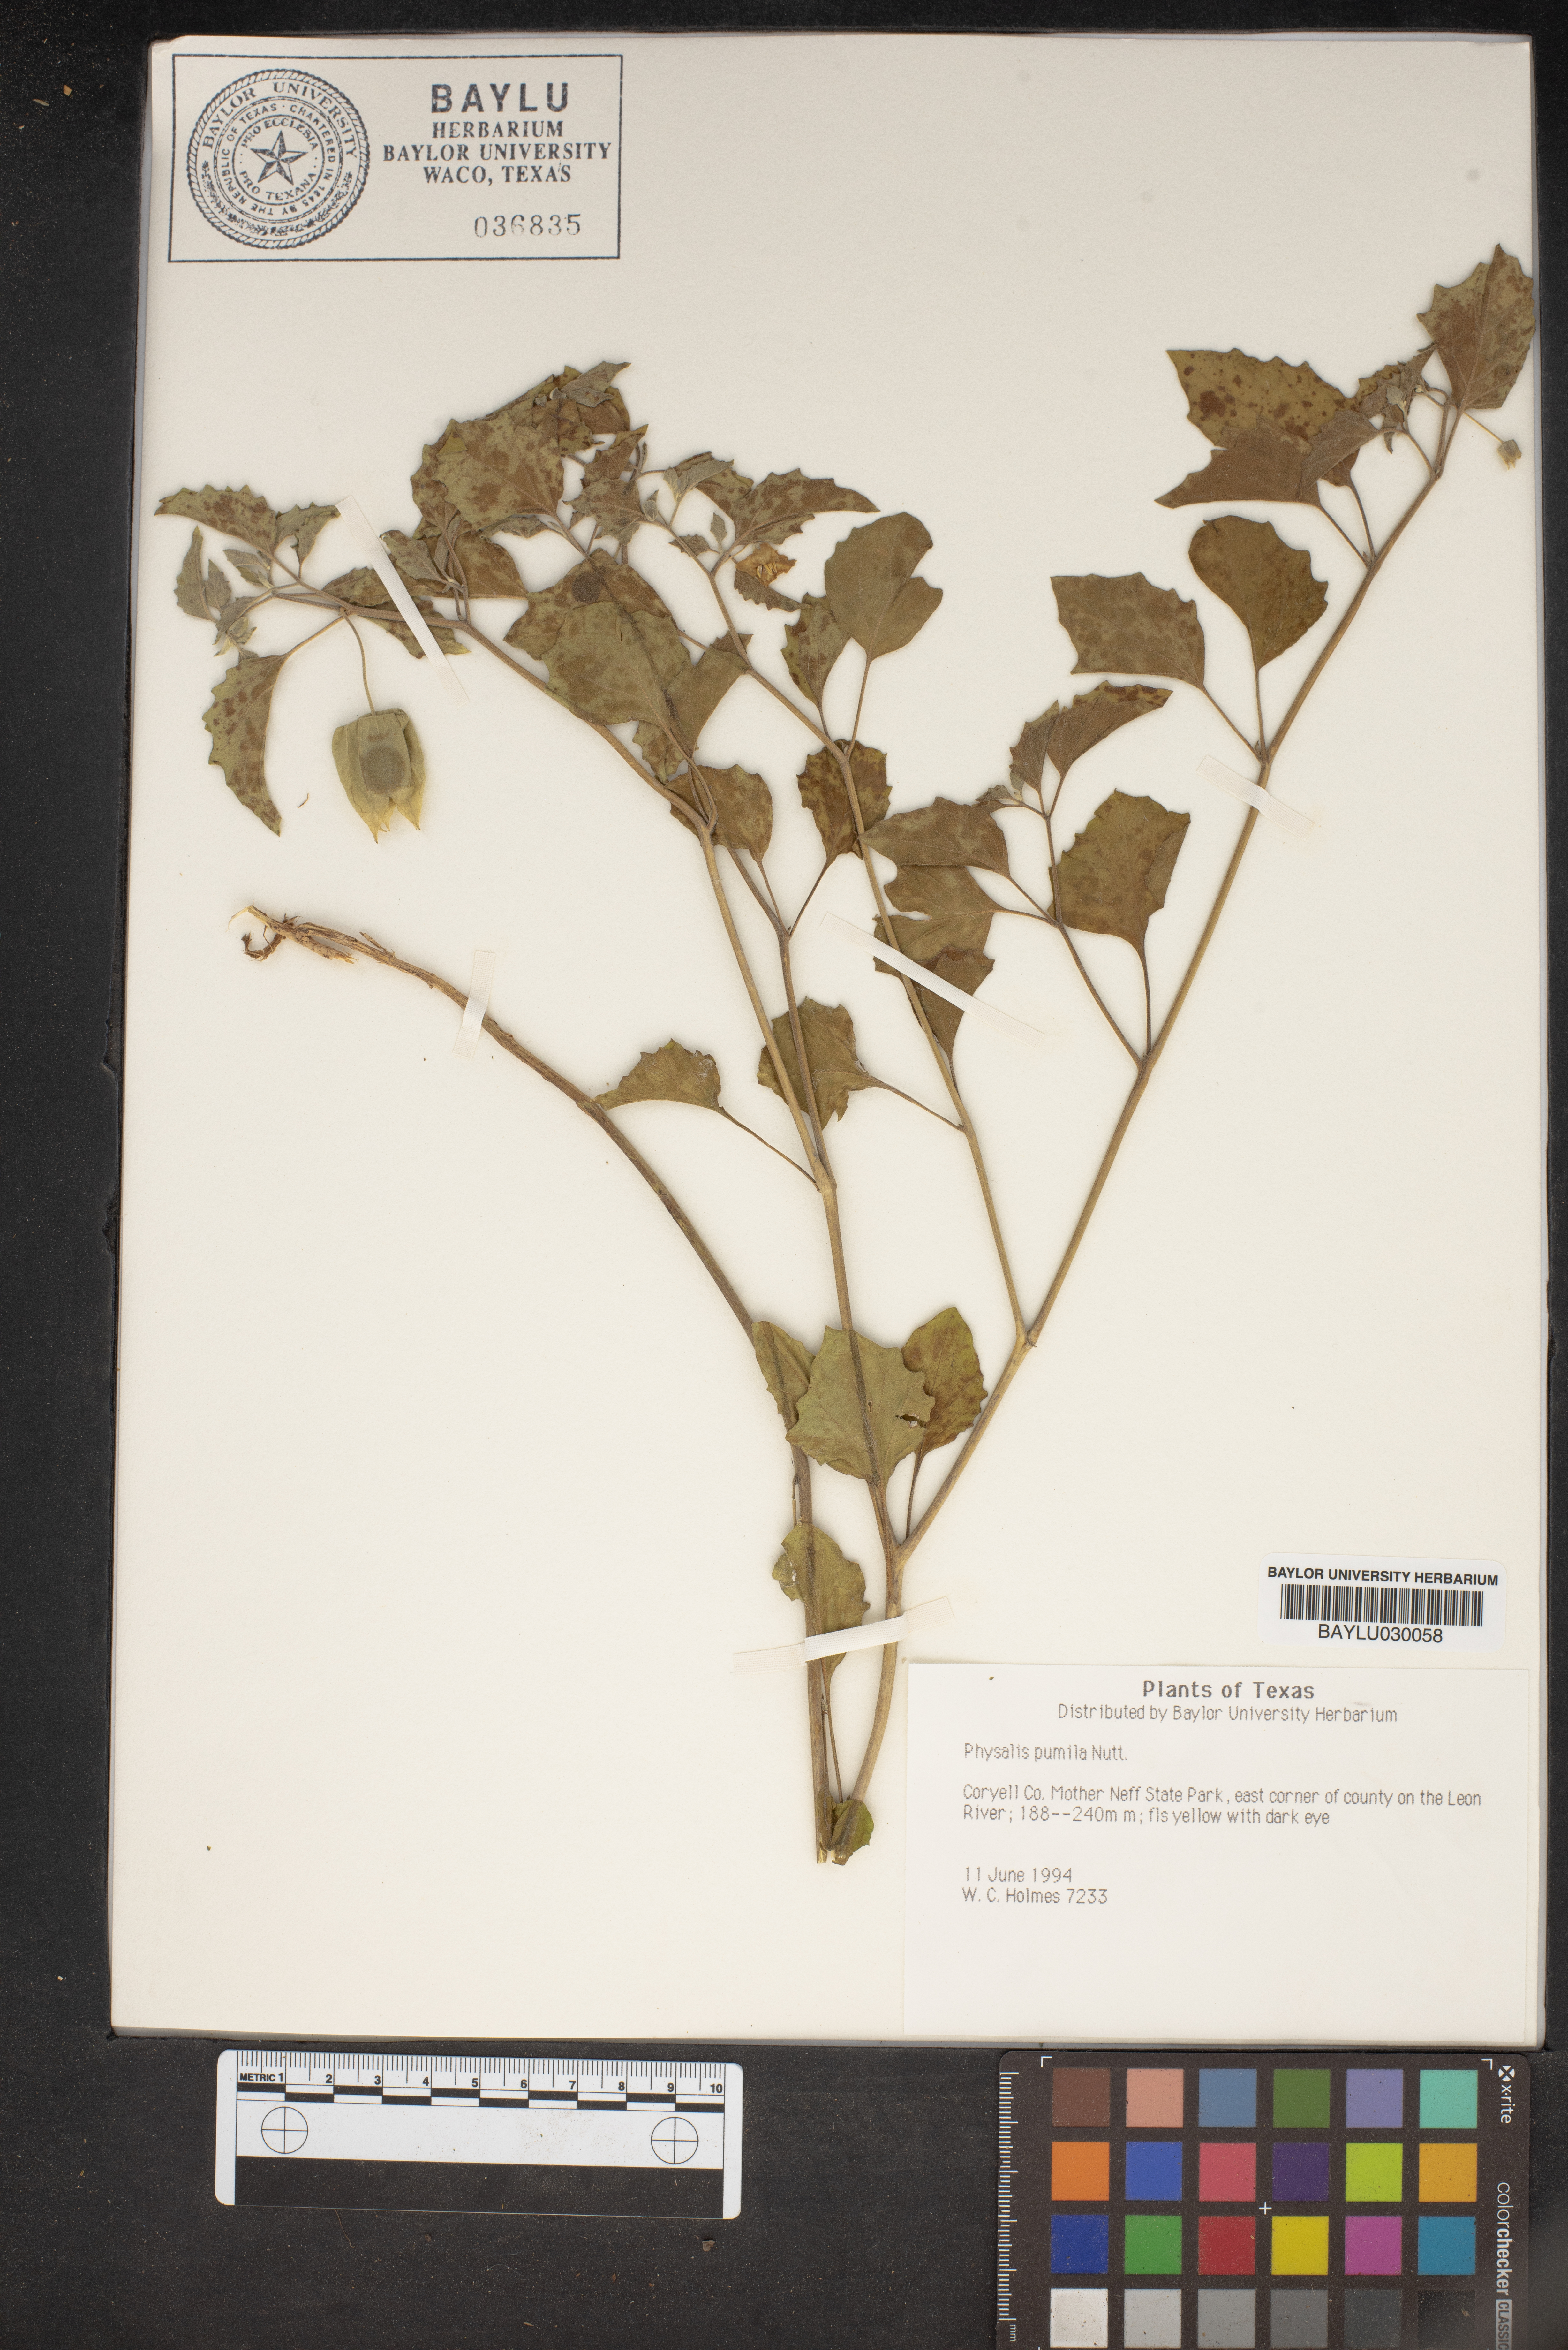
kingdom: Plantae
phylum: Tracheophyta
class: Magnoliopsida
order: Solanales
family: Solanaceae
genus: Physalis
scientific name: Physalis pumila
